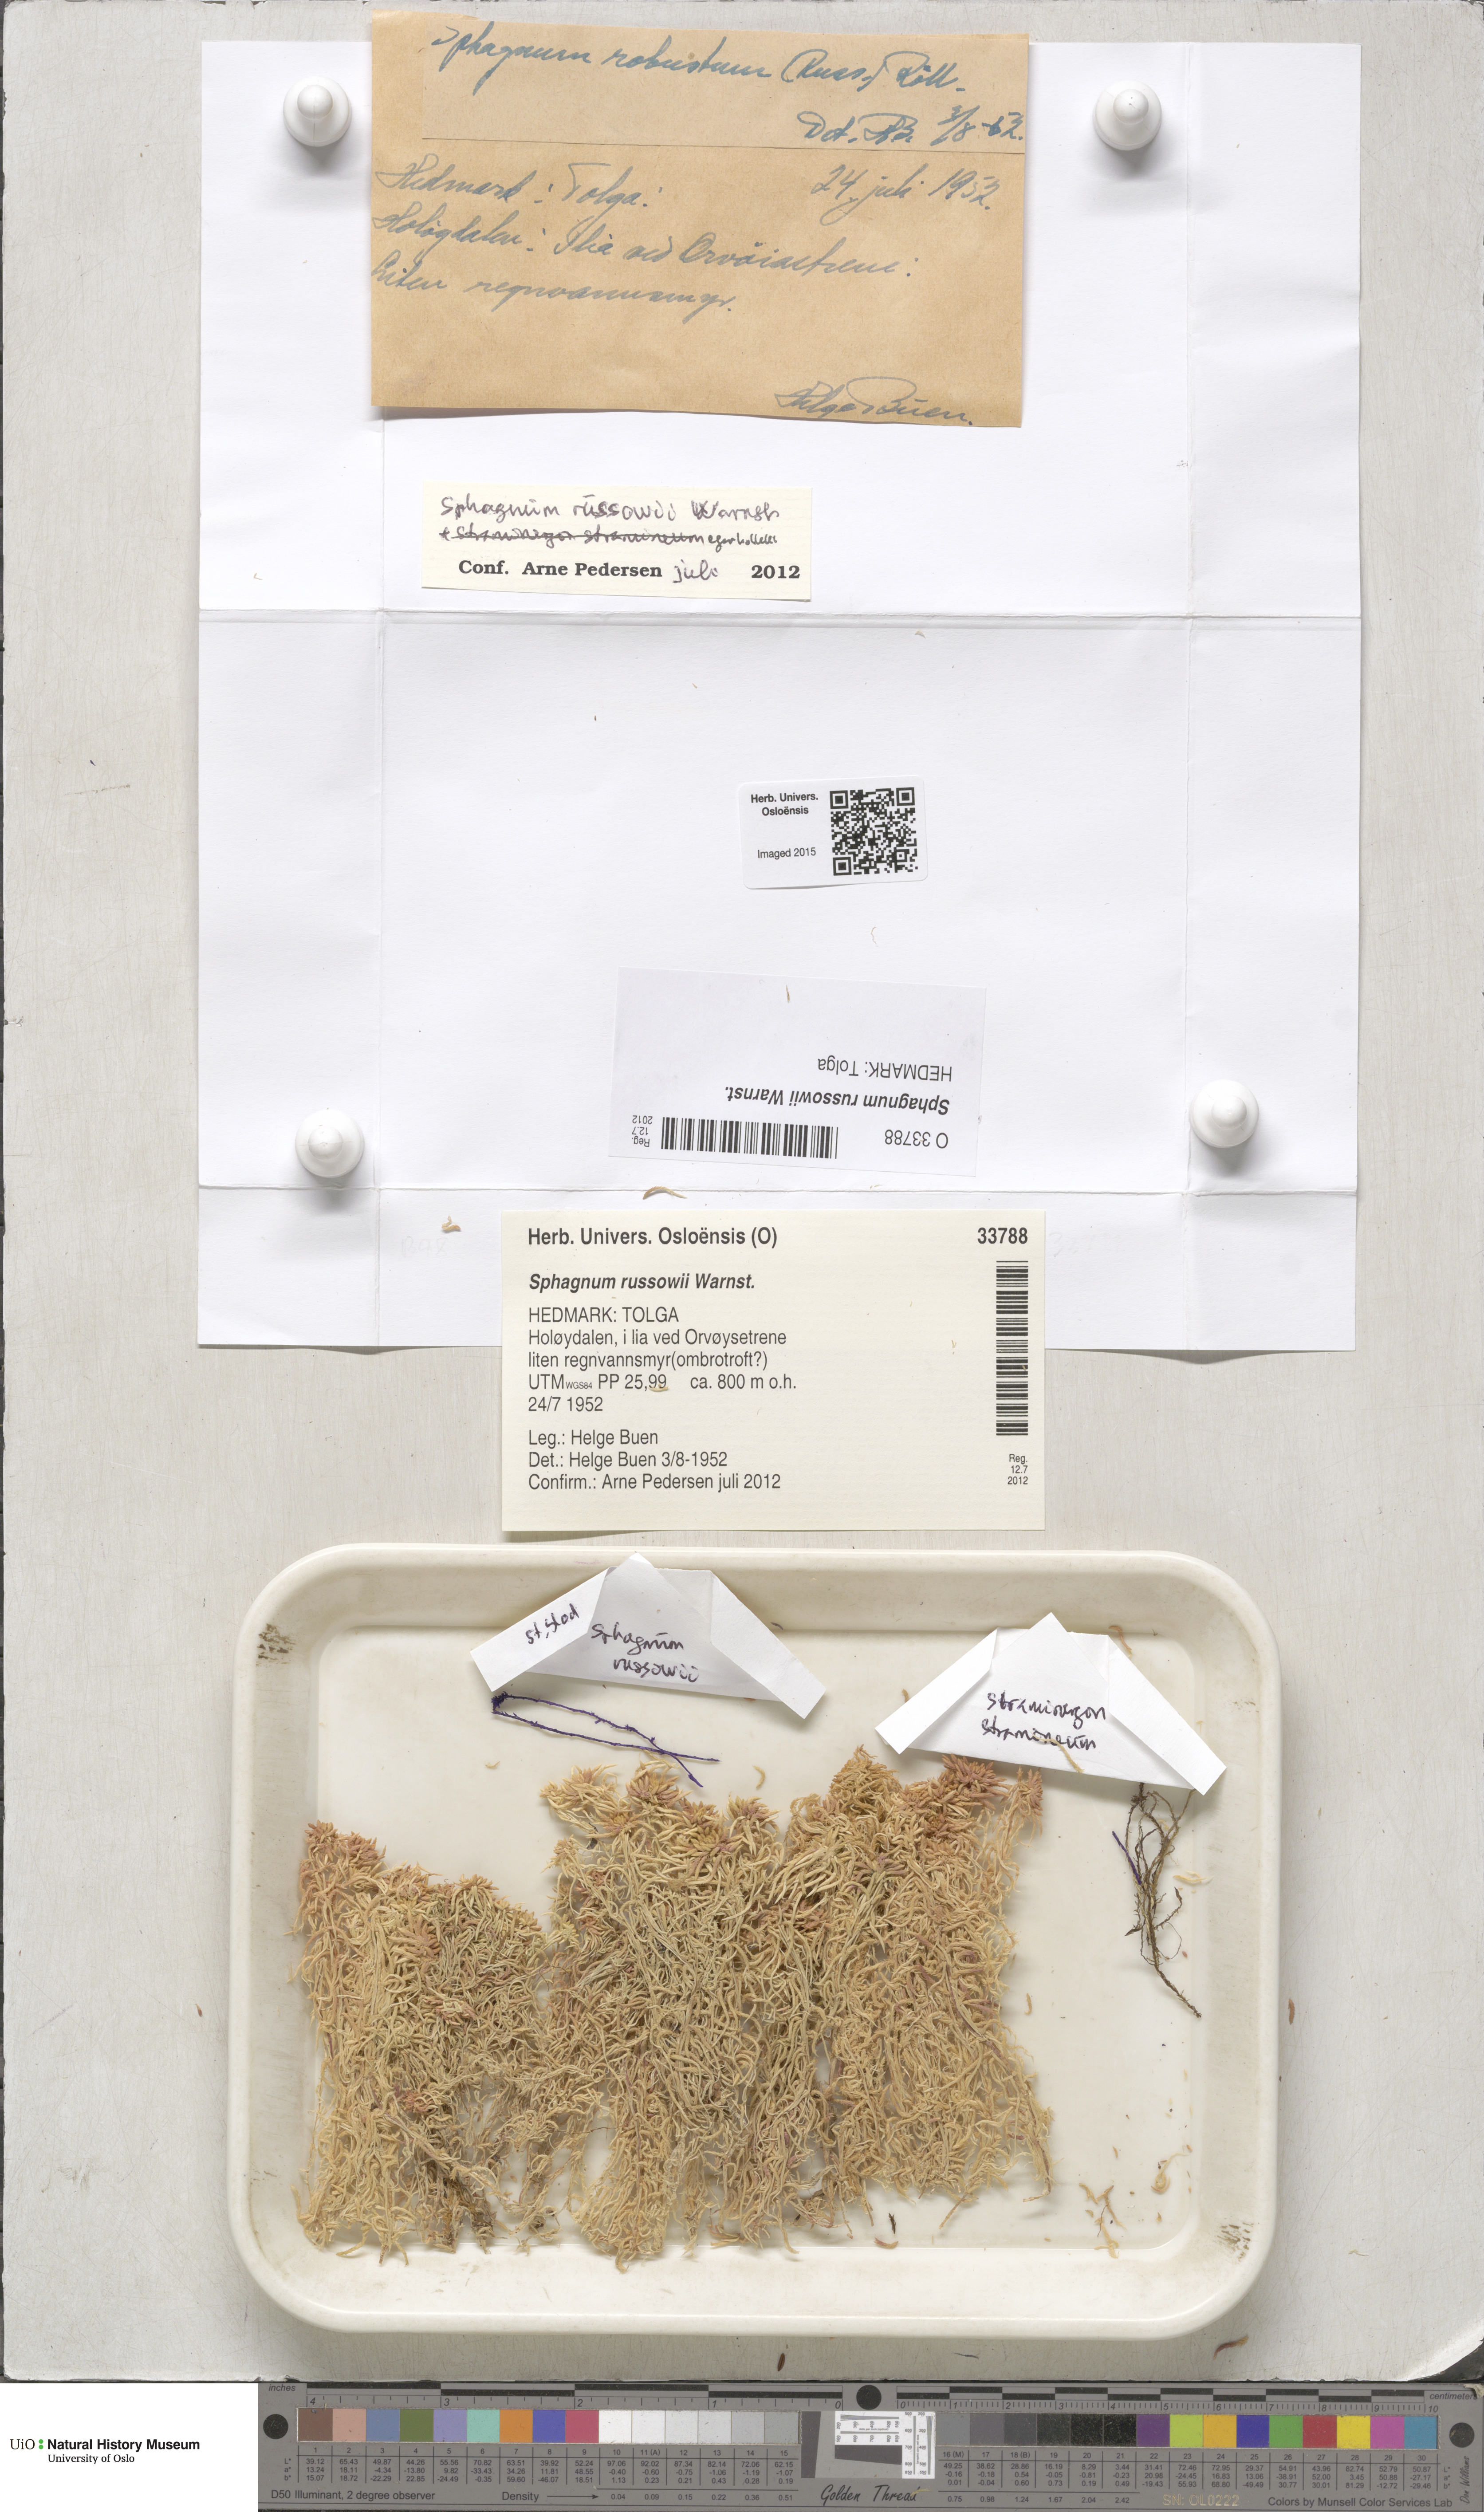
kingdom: Plantae
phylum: Bryophyta
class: Sphagnopsida
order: Sphagnales
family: Sphagnaceae
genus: Sphagnum
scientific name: Sphagnum russowii
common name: Russow's peat moss
